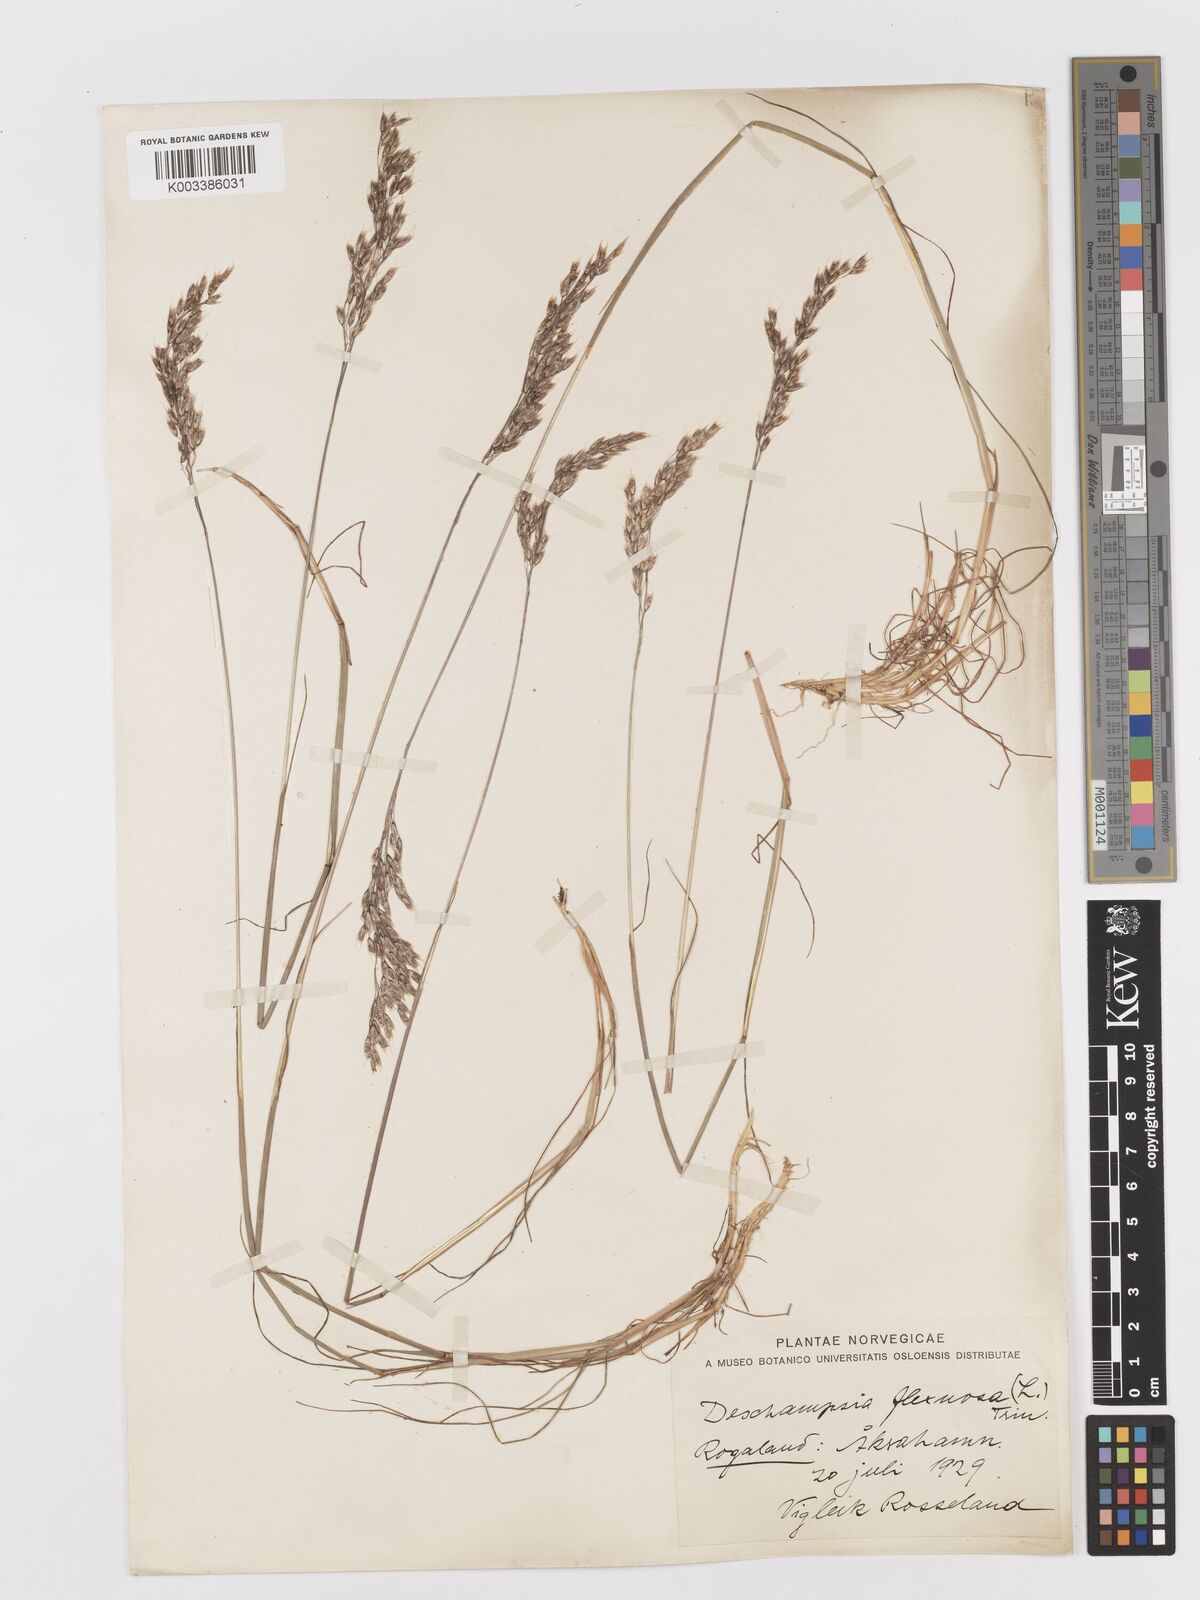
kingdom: Plantae
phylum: Tracheophyta
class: Liliopsida
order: Poales
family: Poaceae
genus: Avenella
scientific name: Avenella flexuosa
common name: Wavy hairgrass
